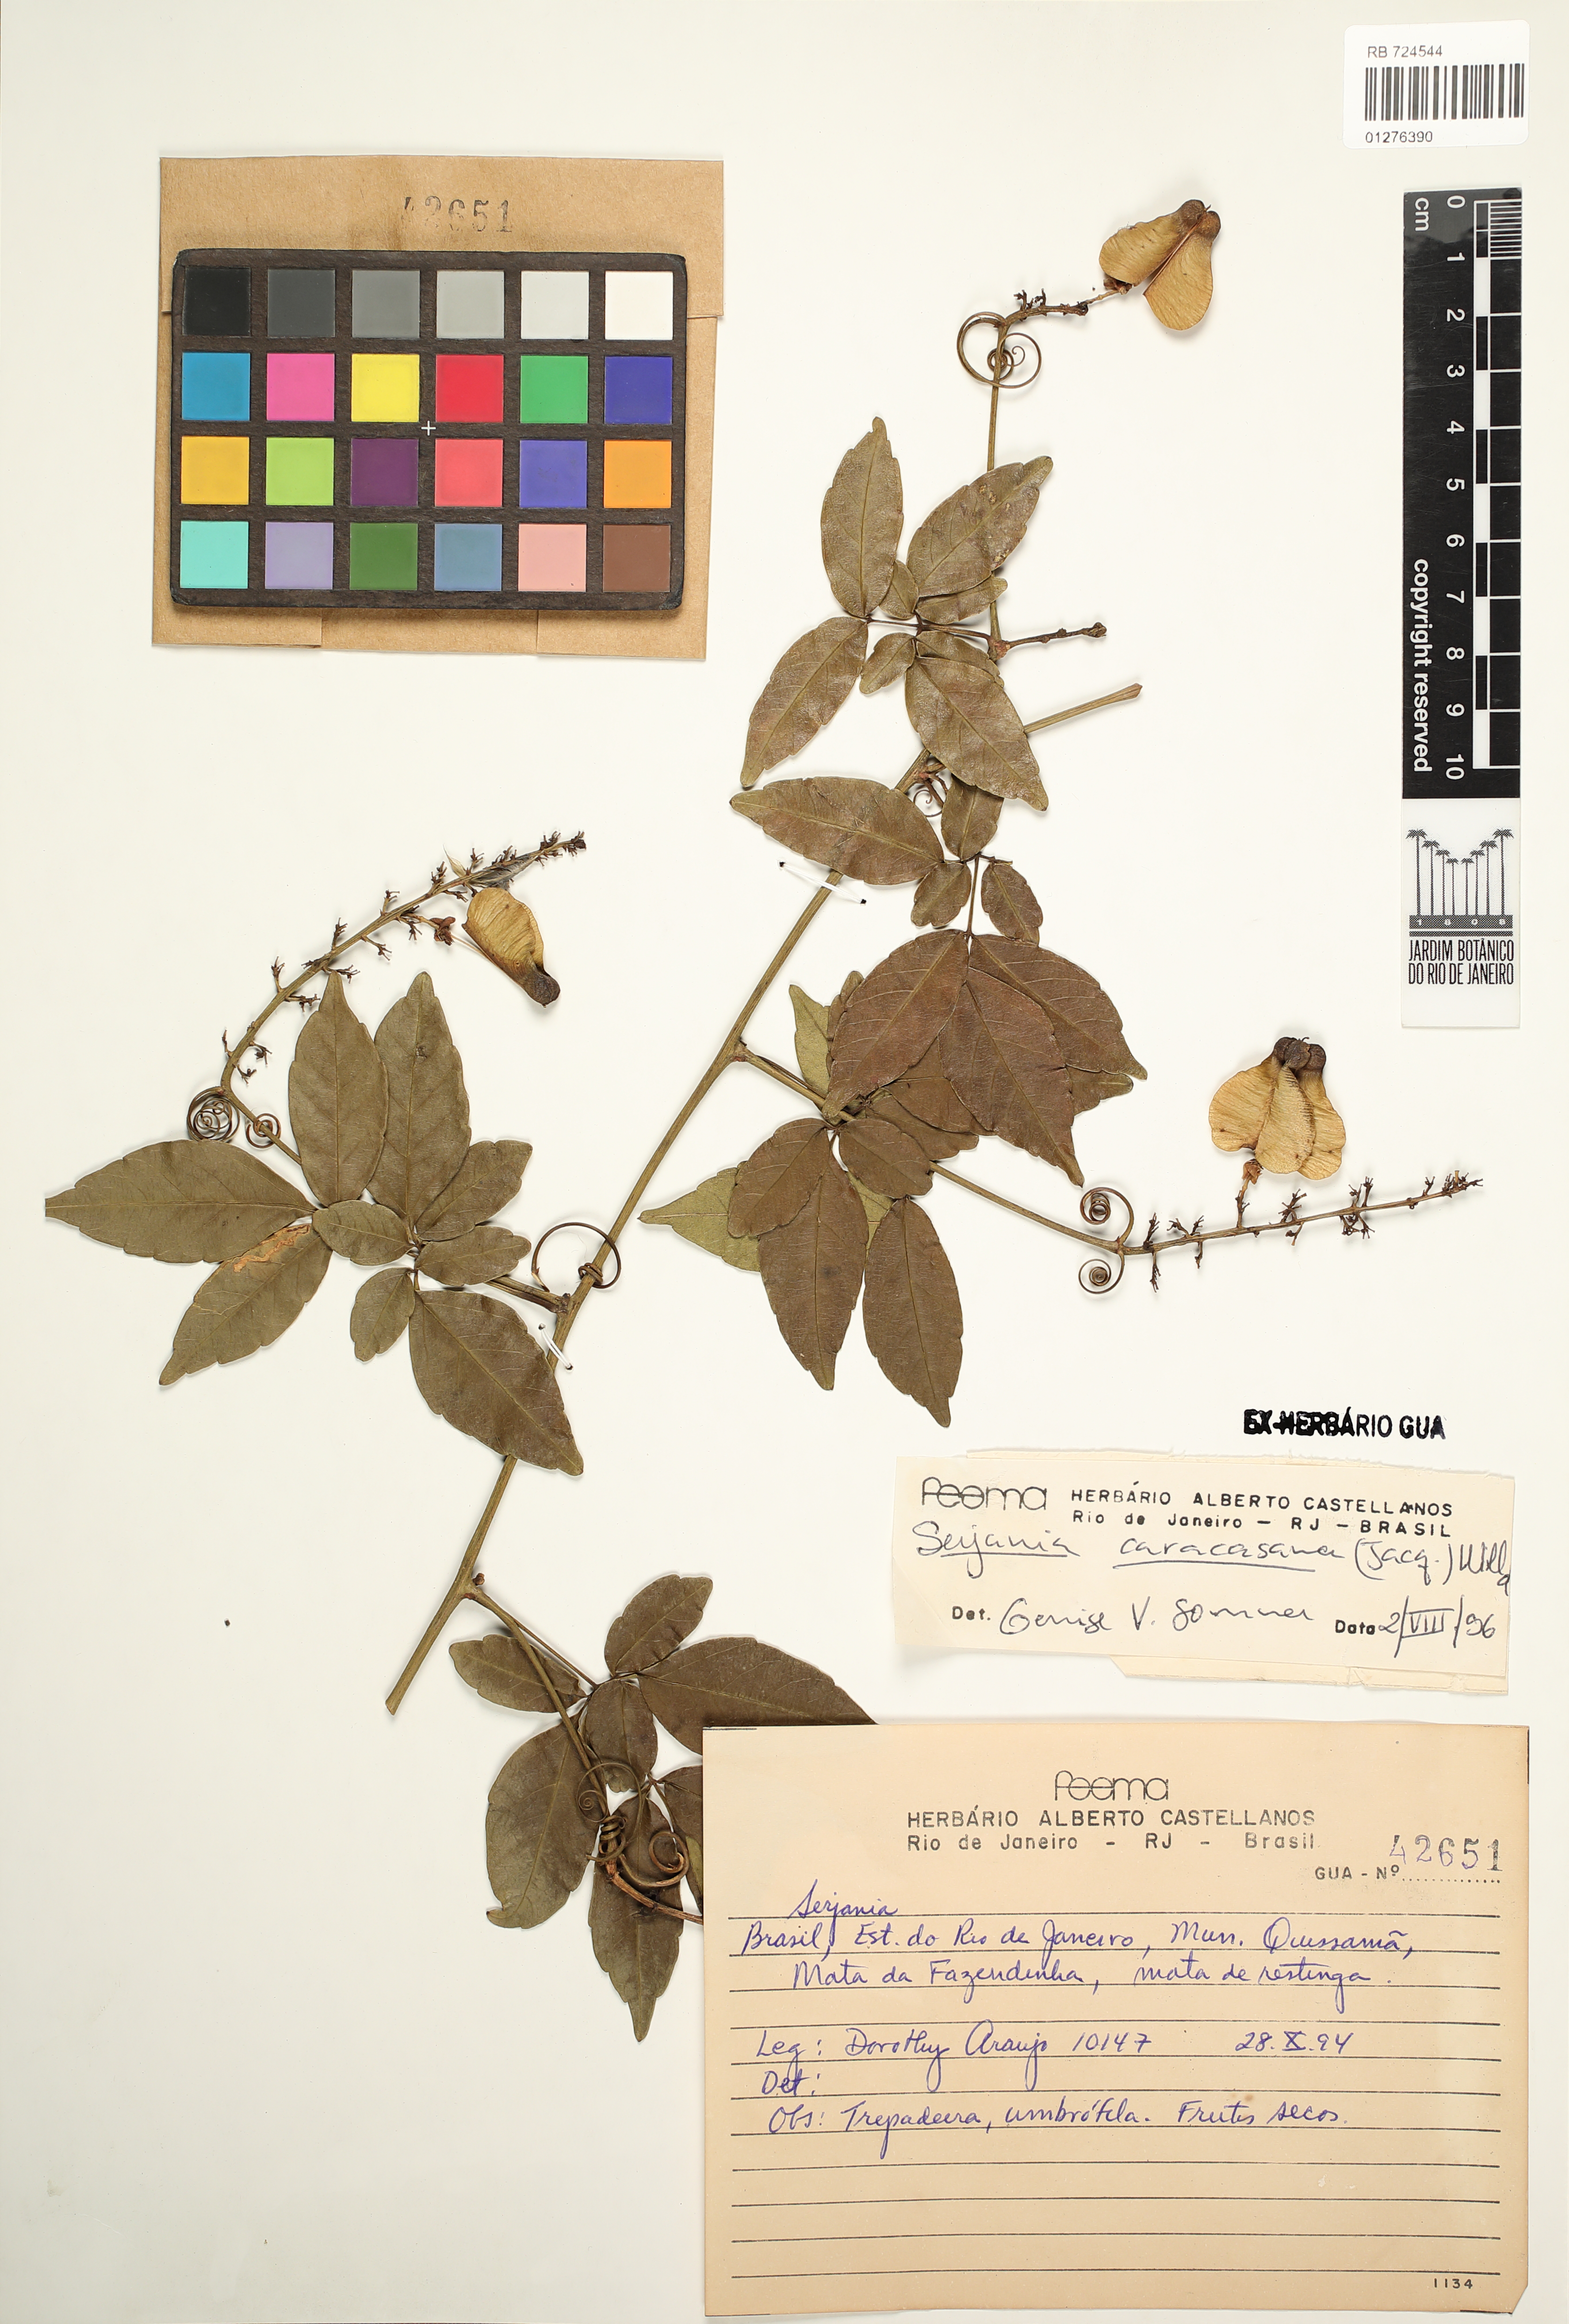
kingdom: Plantae
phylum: Tracheophyta
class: Magnoliopsida
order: Sapindales
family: Sapindaceae
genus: Serjania
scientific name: Serjania caracasana
